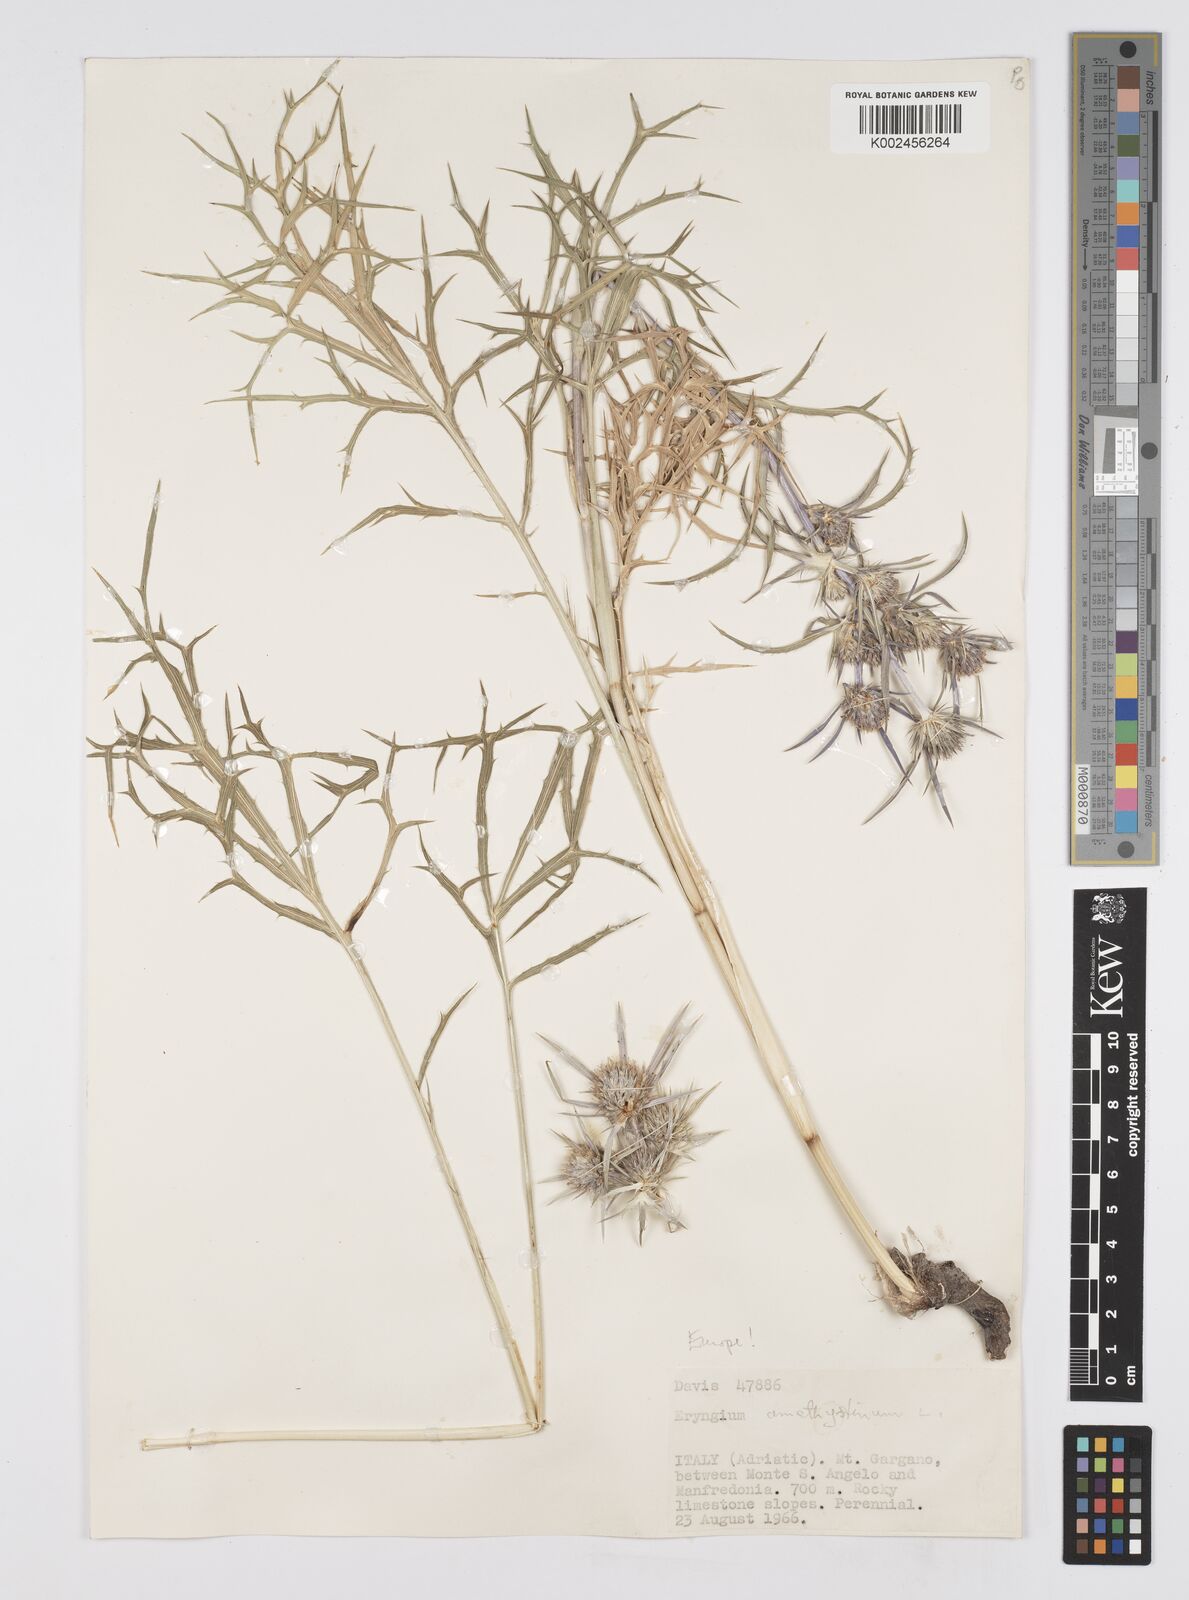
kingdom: Plantae
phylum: Tracheophyta
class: Magnoliopsida
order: Apiales
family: Apiaceae
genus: Eryngium
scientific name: Eryngium amethystinum
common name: Amethyst eryngo
